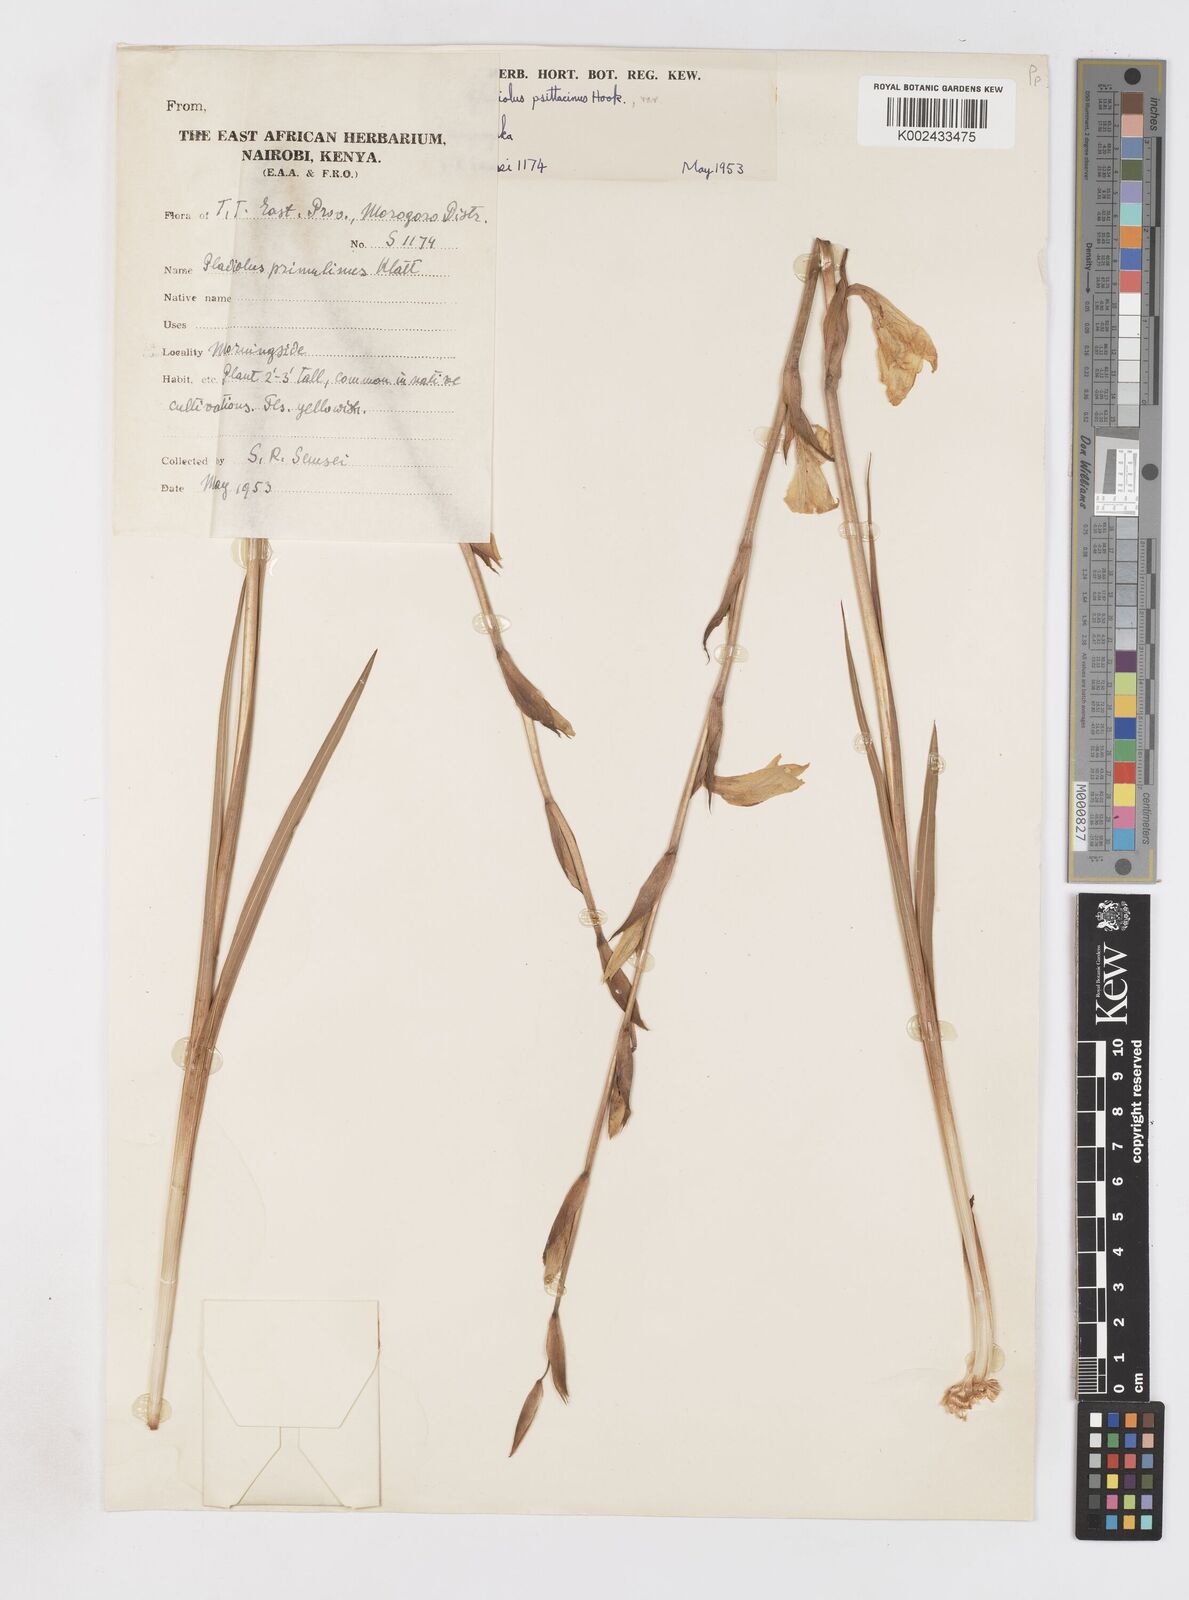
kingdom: Plantae
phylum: Tracheophyta
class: Liliopsida
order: Asparagales
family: Iridaceae
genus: Gladiolus
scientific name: Gladiolus dalenii
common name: Cornflag
